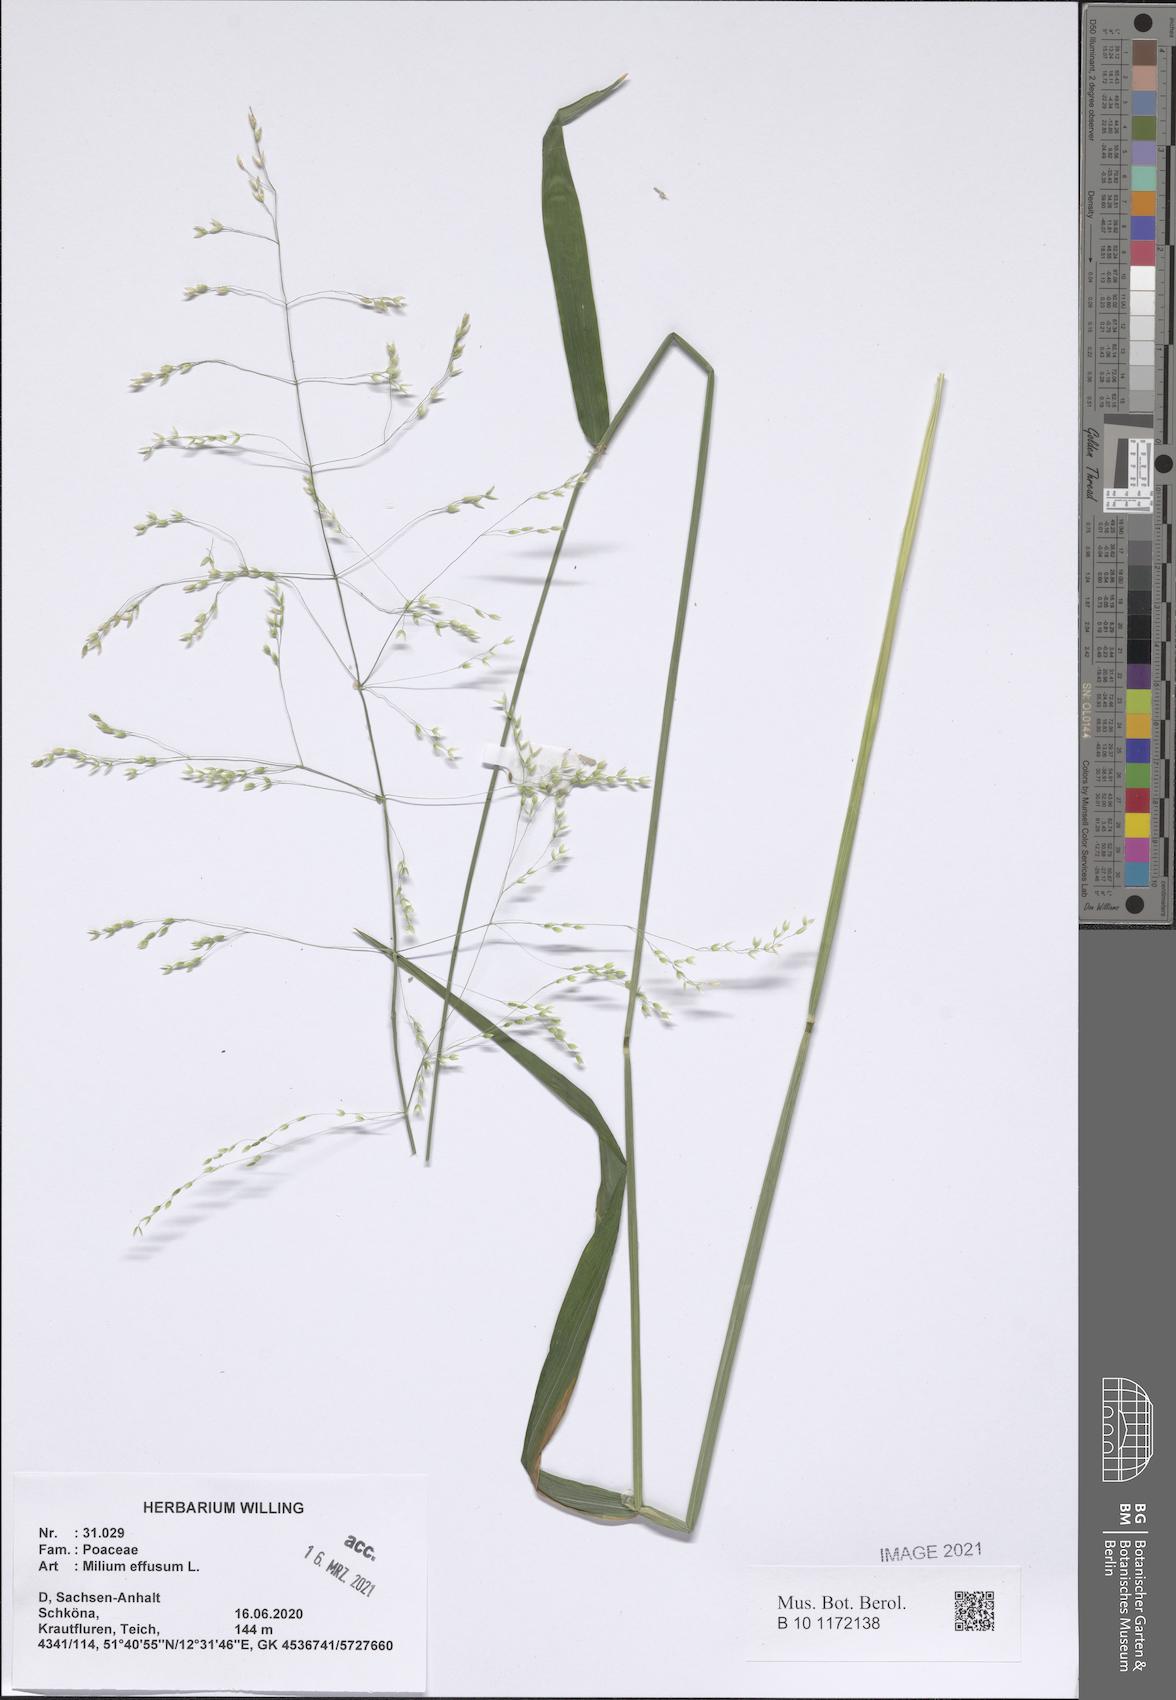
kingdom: Plantae
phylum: Tracheophyta
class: Liliopsida
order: Poales
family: Poaceae
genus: Milium
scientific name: Milium effusum
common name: Wood millet
